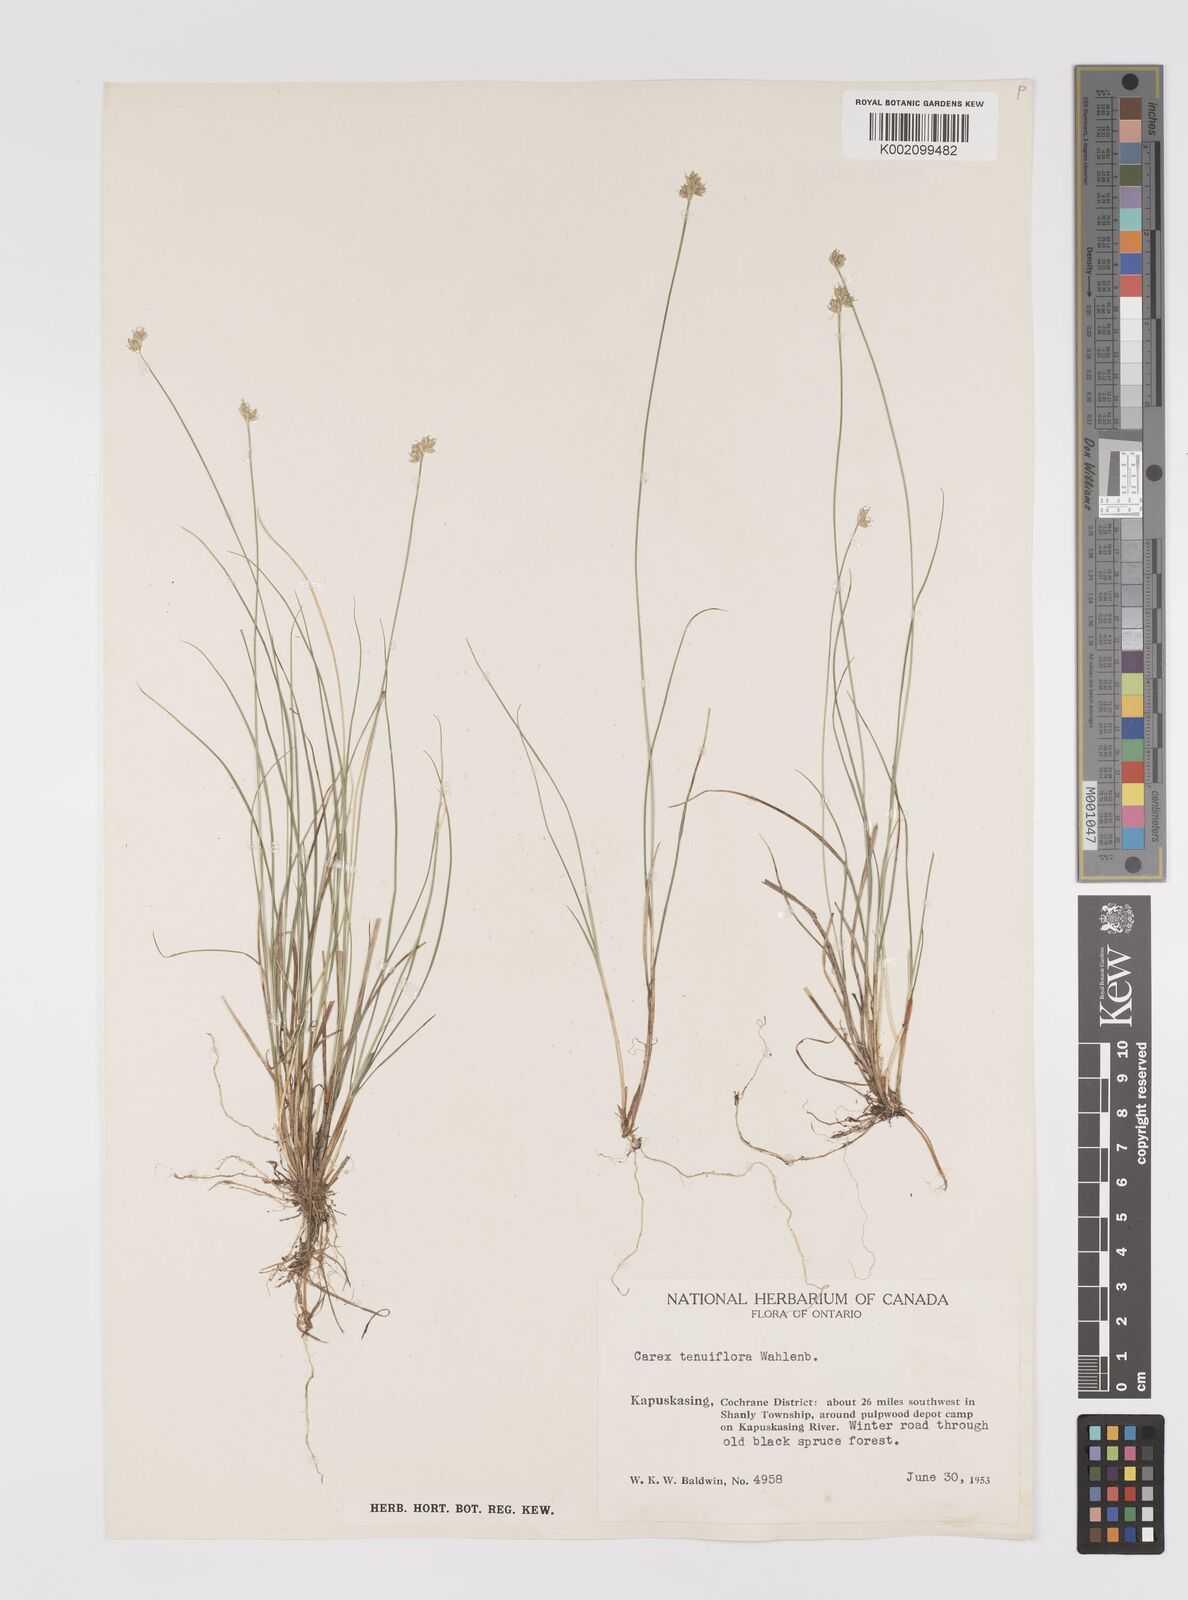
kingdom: Plantae
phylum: Tracheophyta
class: Liliopsida
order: Poales
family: Cyperaceae
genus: Carex
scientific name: Carex tenuiflora
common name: Sparse-flowered sedge
